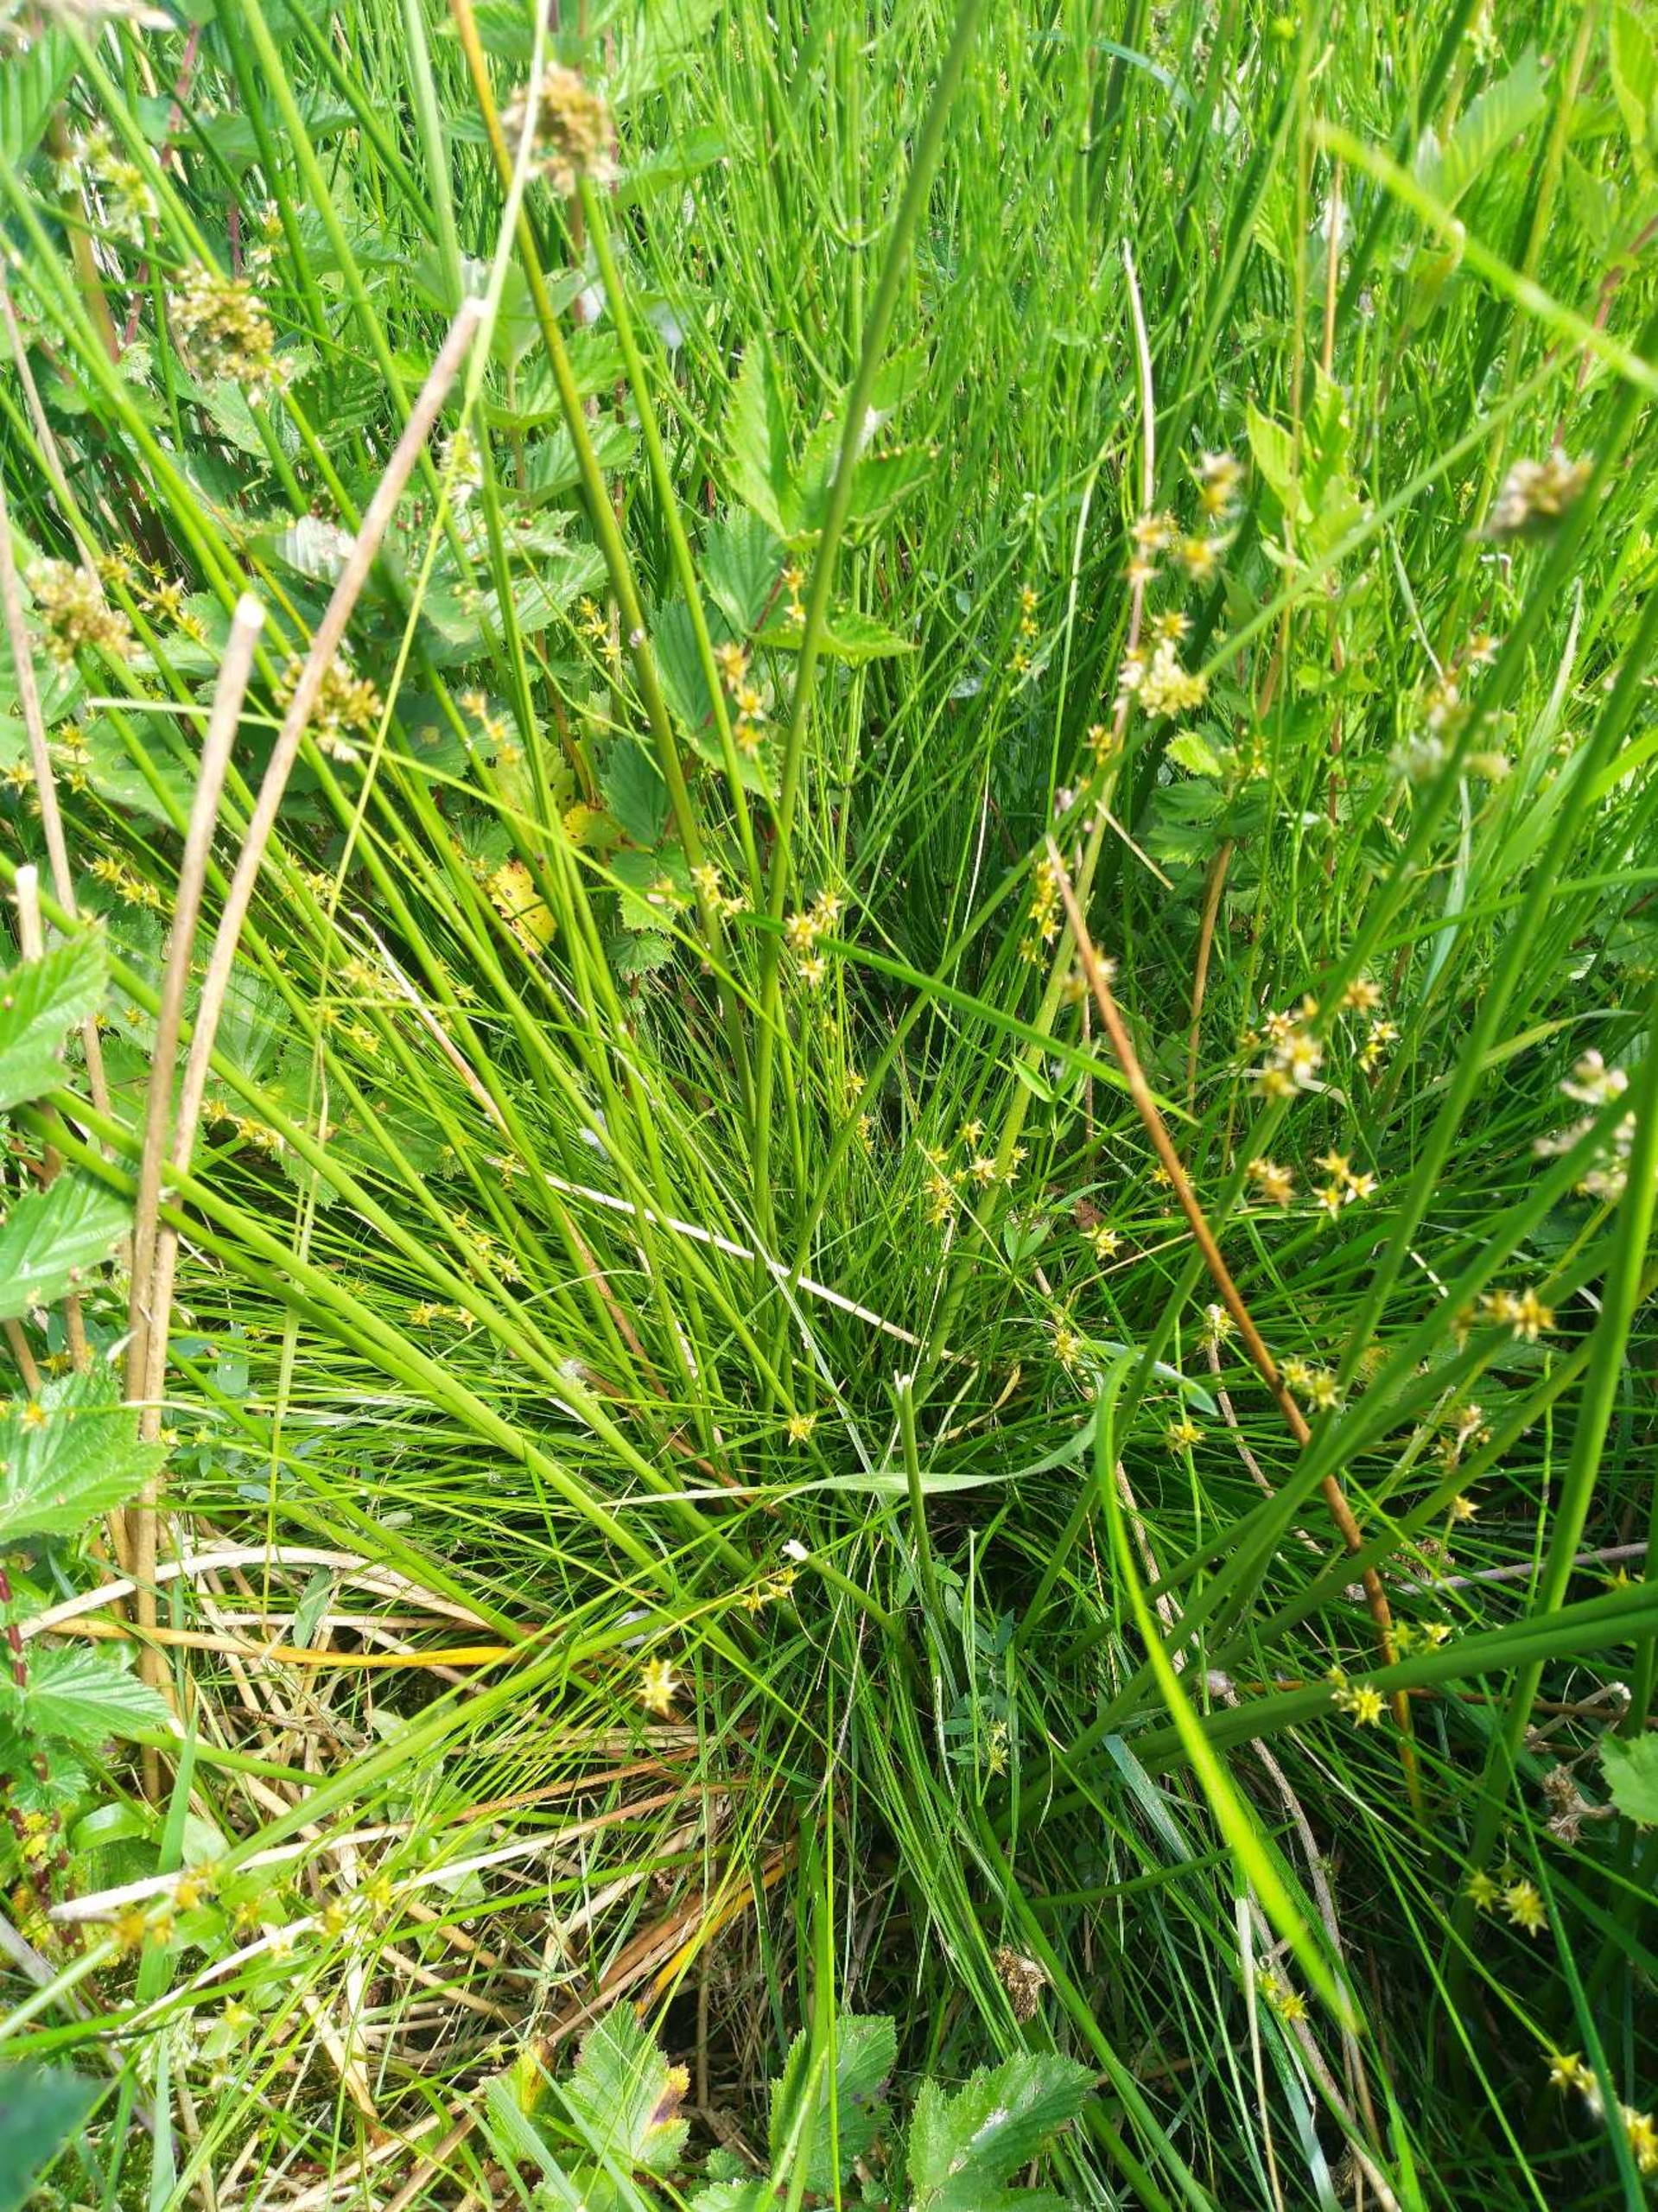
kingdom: Plantae
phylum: Tracheophyta
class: Liliopsida
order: Poales
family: Cyperaceae
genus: Carex
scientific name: Carex echinata
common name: Stjerne-star
